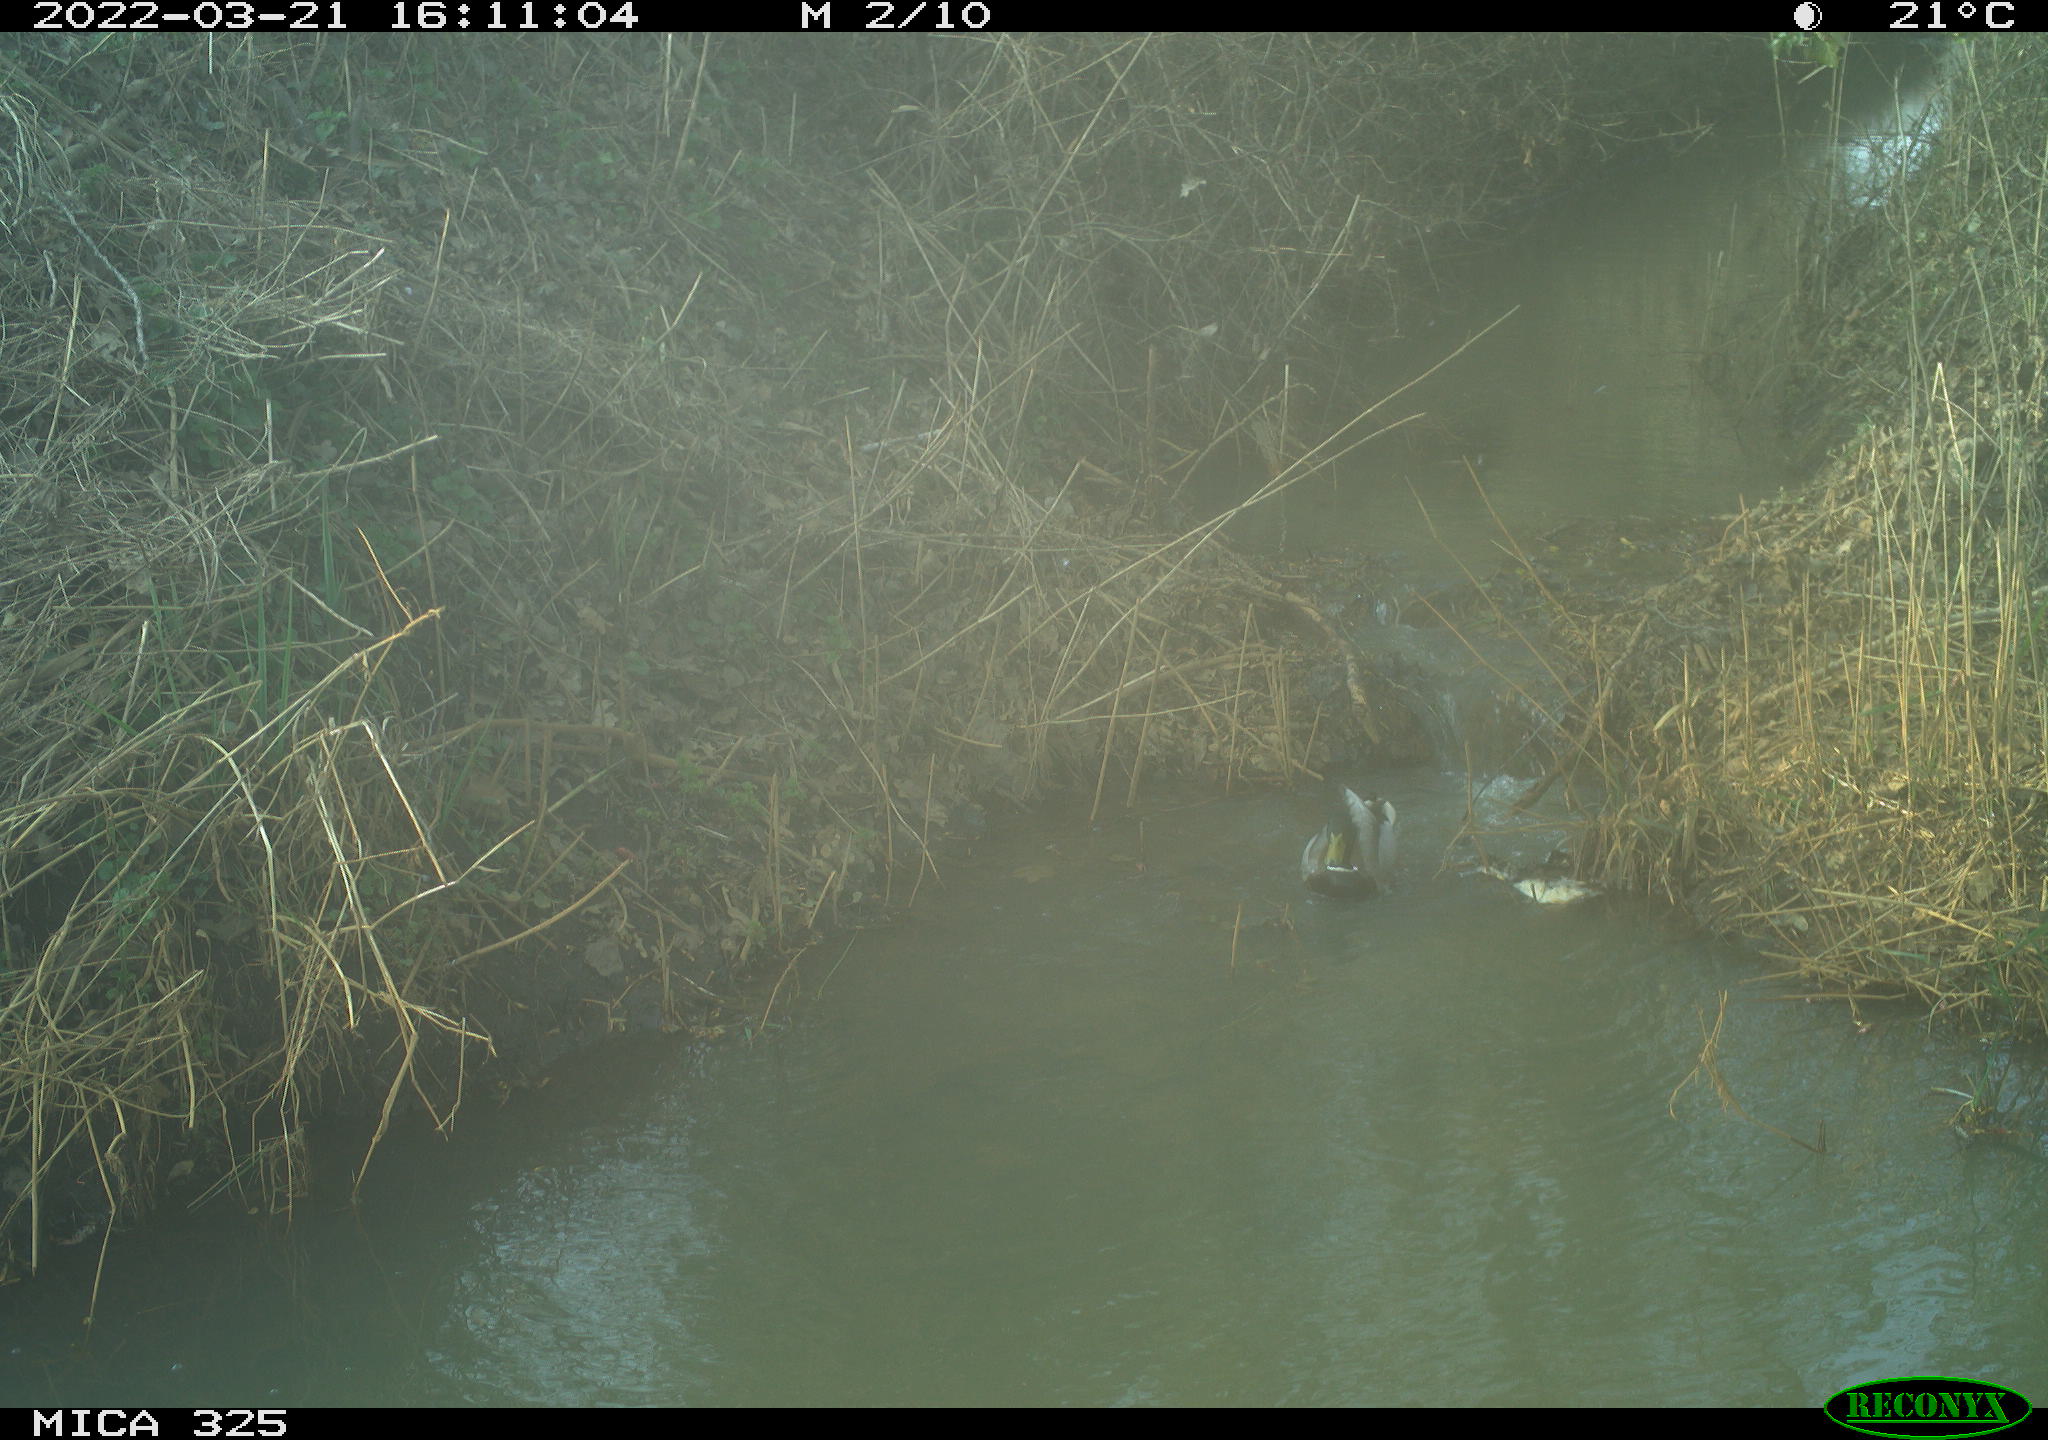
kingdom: Animalia
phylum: Chordata
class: Aves
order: Anseriformes
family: Anatidae
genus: Anas
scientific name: Anas platyrhynchos
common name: Mallard
